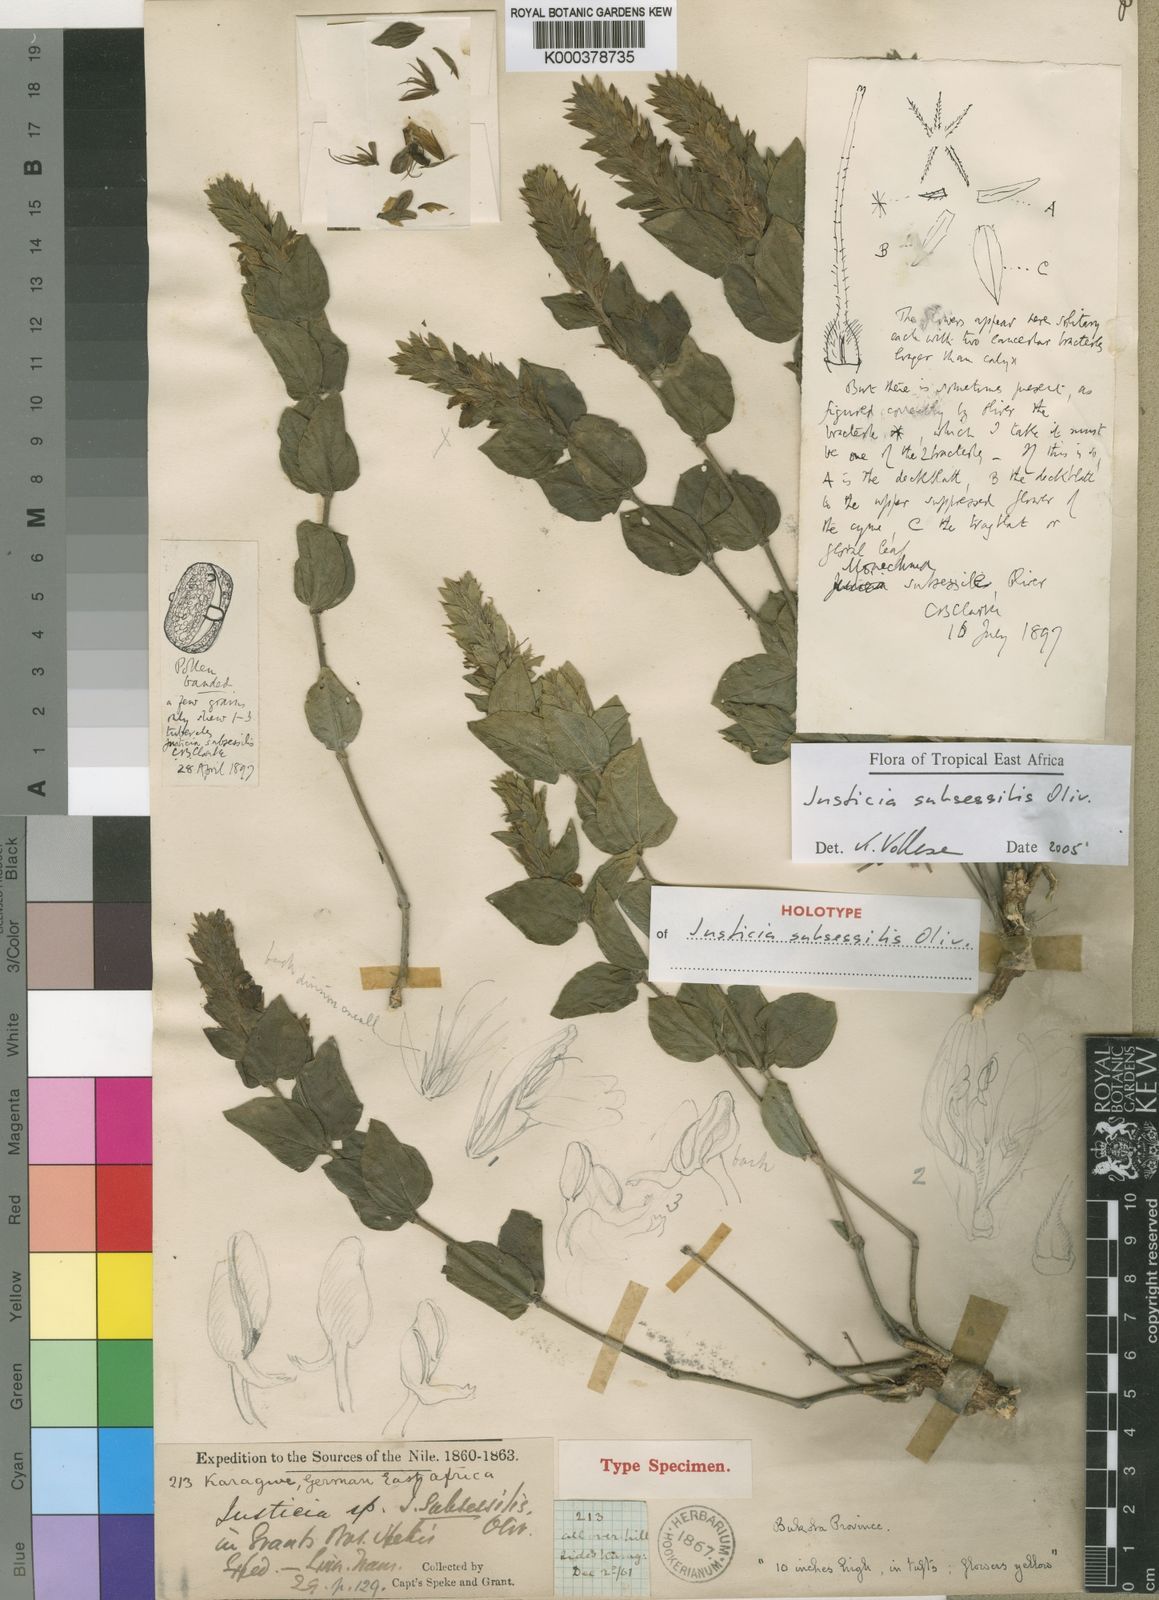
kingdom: Plantae
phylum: Tracheophyta
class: Magnoliopsida
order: Lamiales
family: Acanthaceae
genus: Monechma
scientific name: Monechma subsessile
